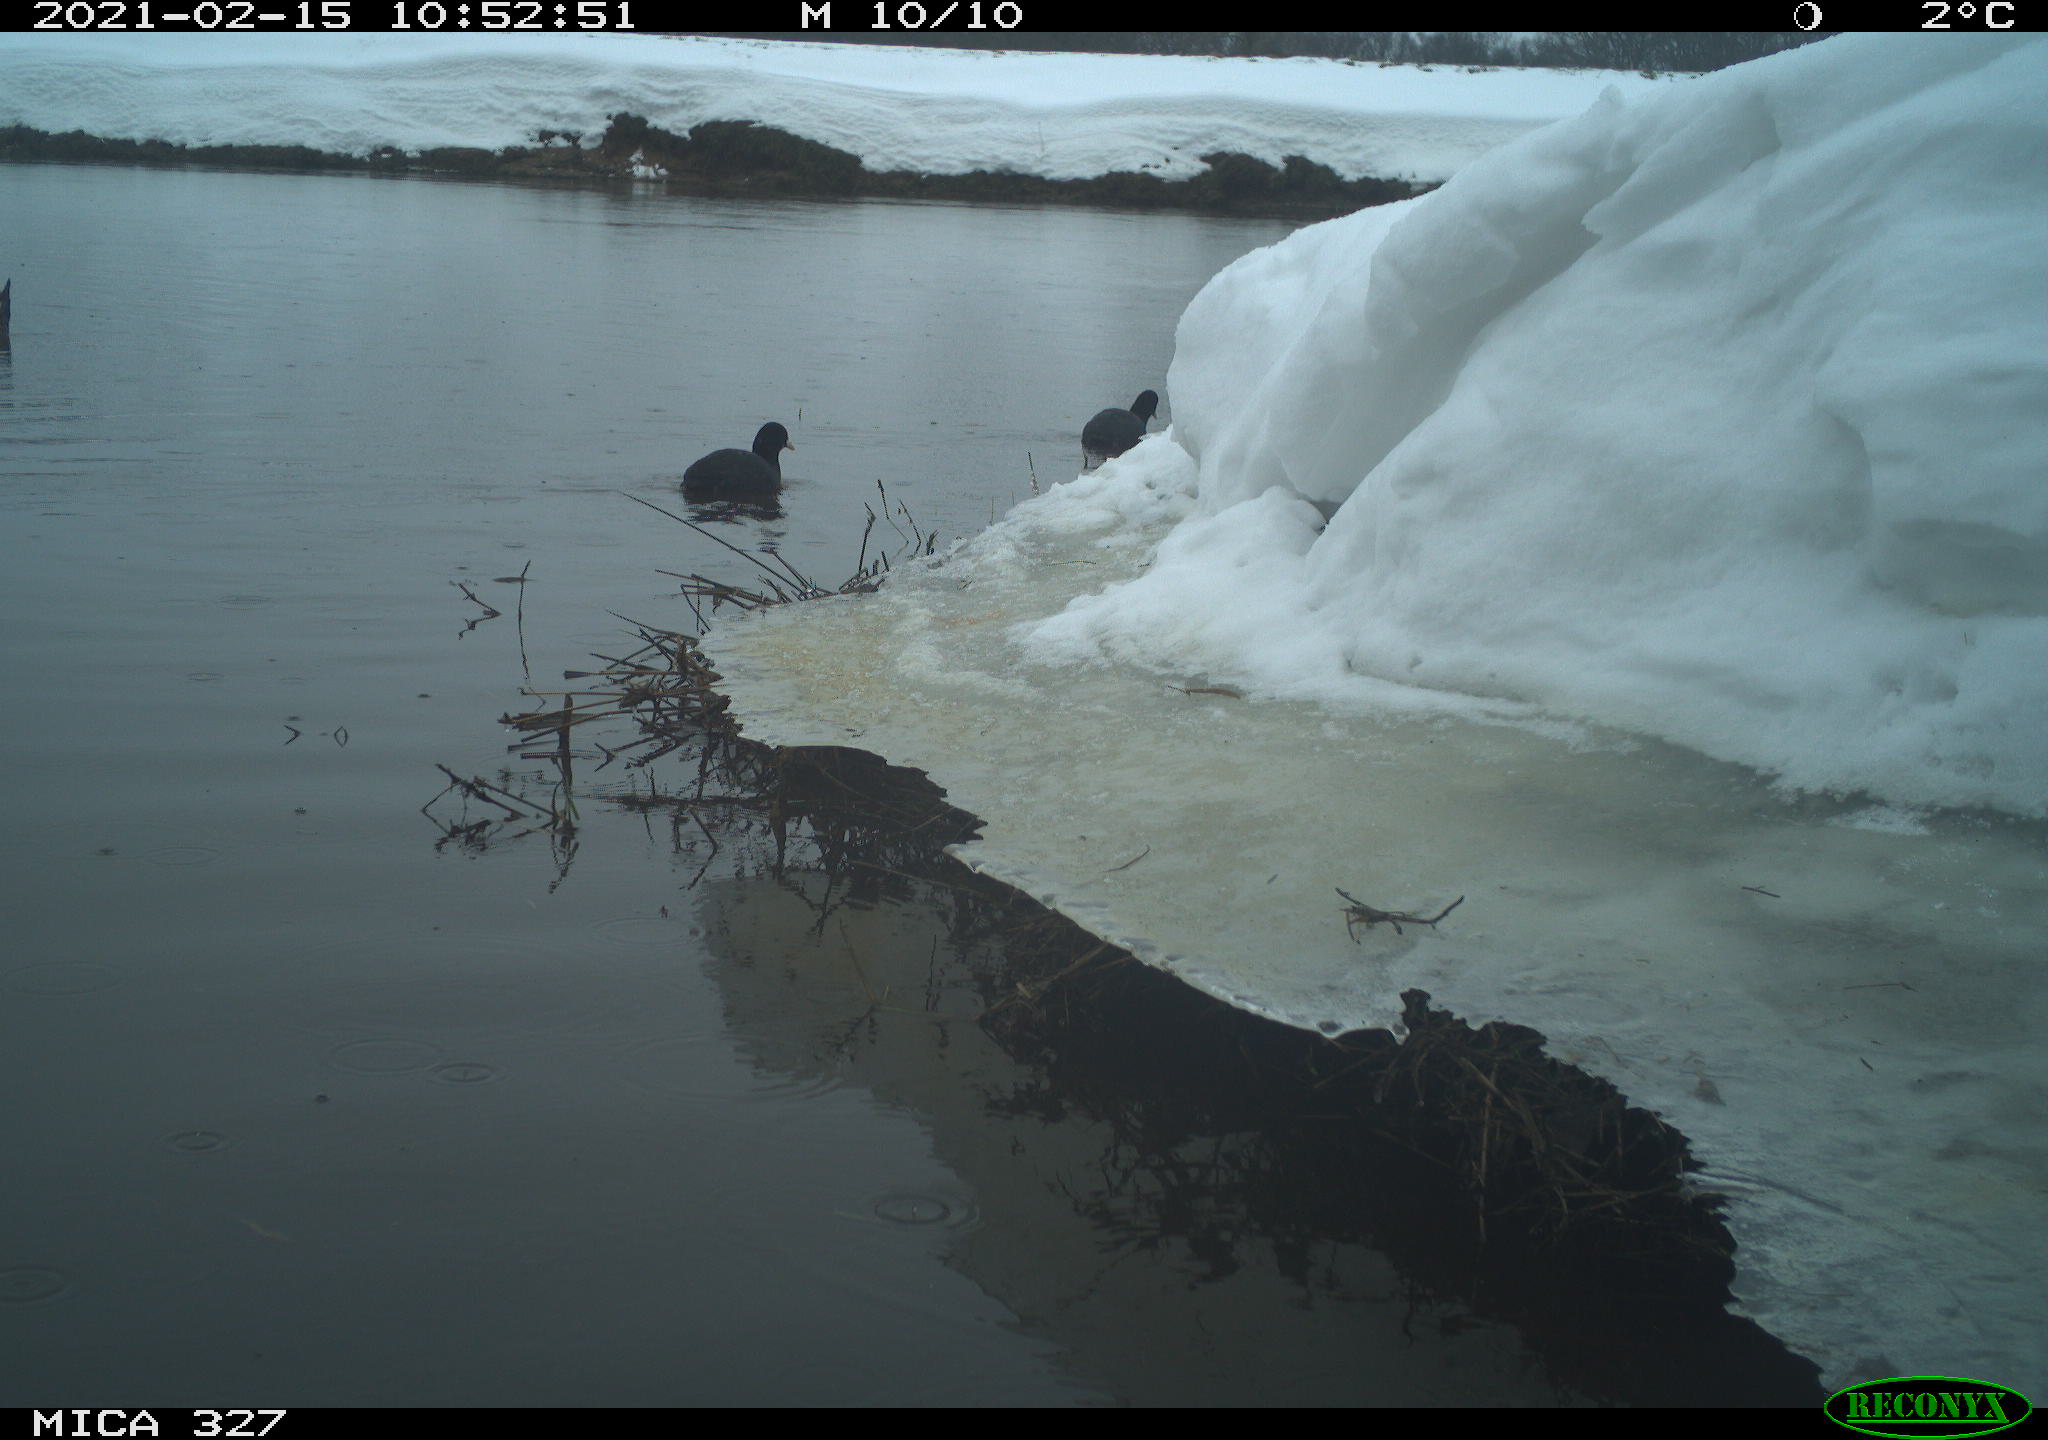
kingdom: Animalia
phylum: Chordata
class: Aves
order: Gruiformes
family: Rallidae
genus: Fulica
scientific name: Fulica atra
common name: Eurasian coot
